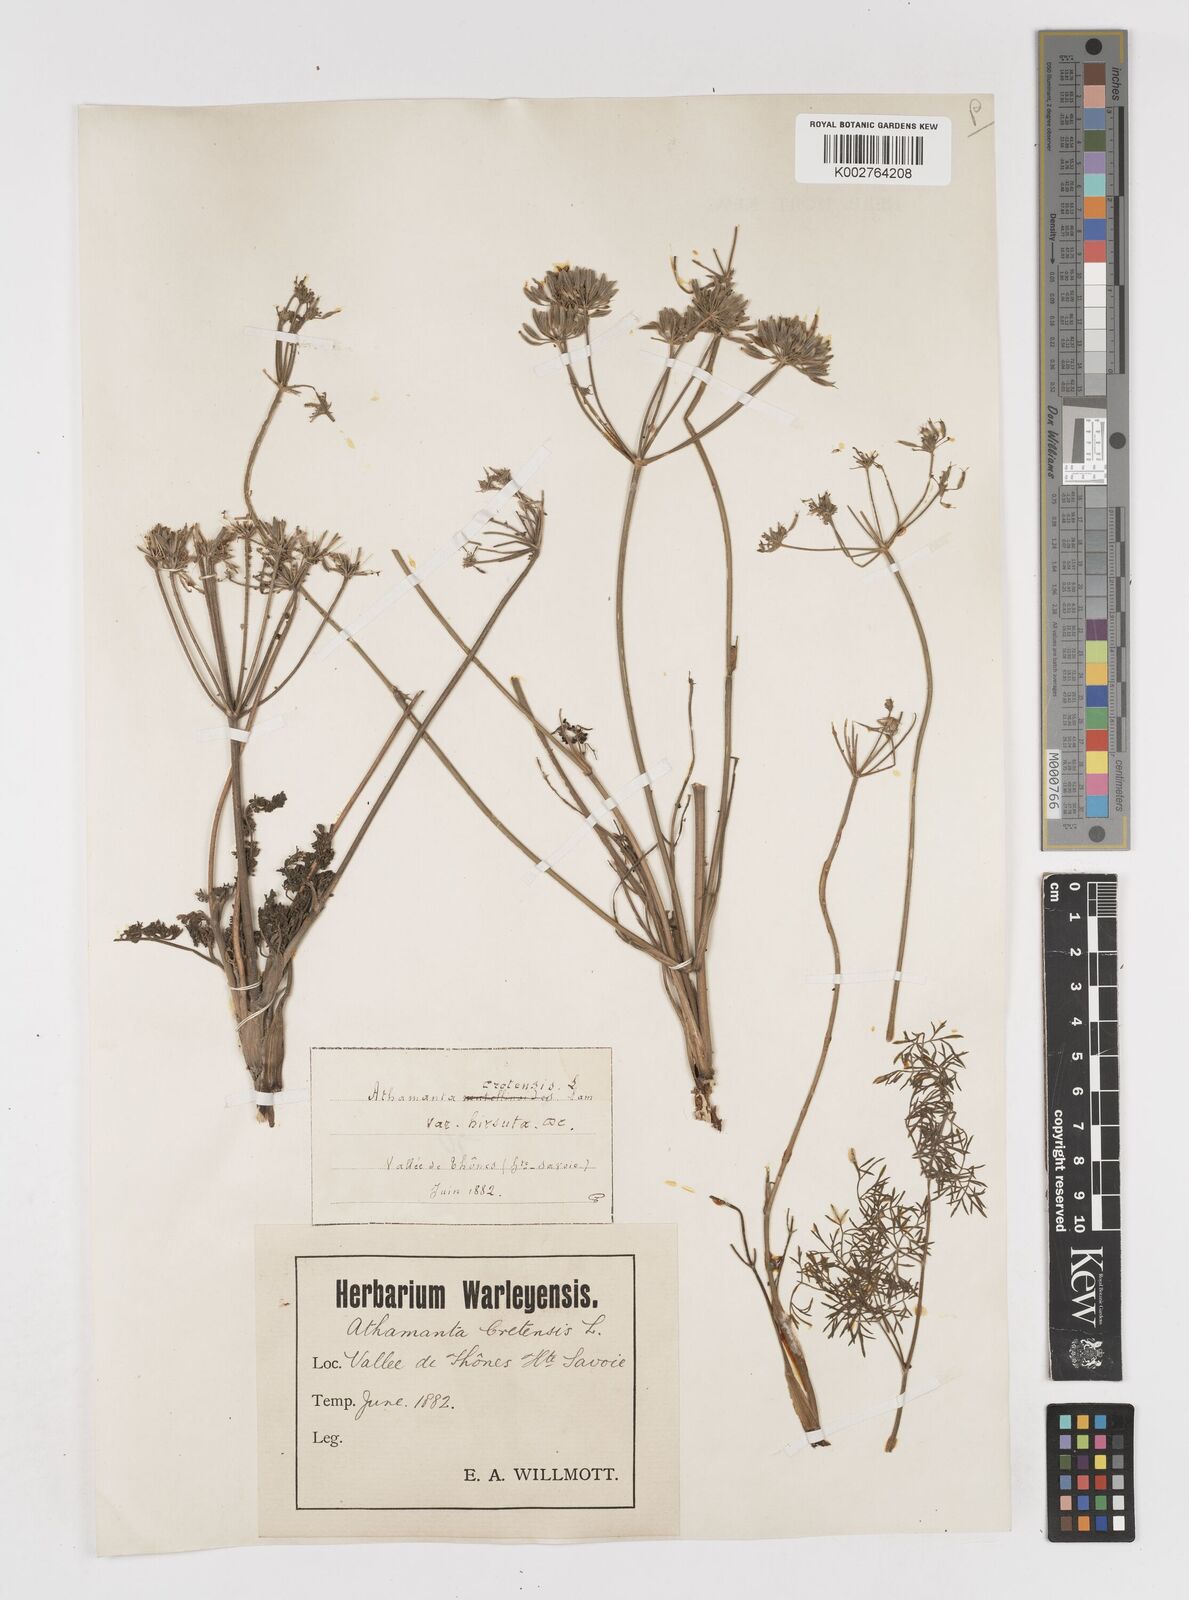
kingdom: Plantae
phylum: Tracheophyta
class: Magnoliopsida
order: Apiales
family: Apiaceae
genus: Athamanta
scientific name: Athamanta cretensis
